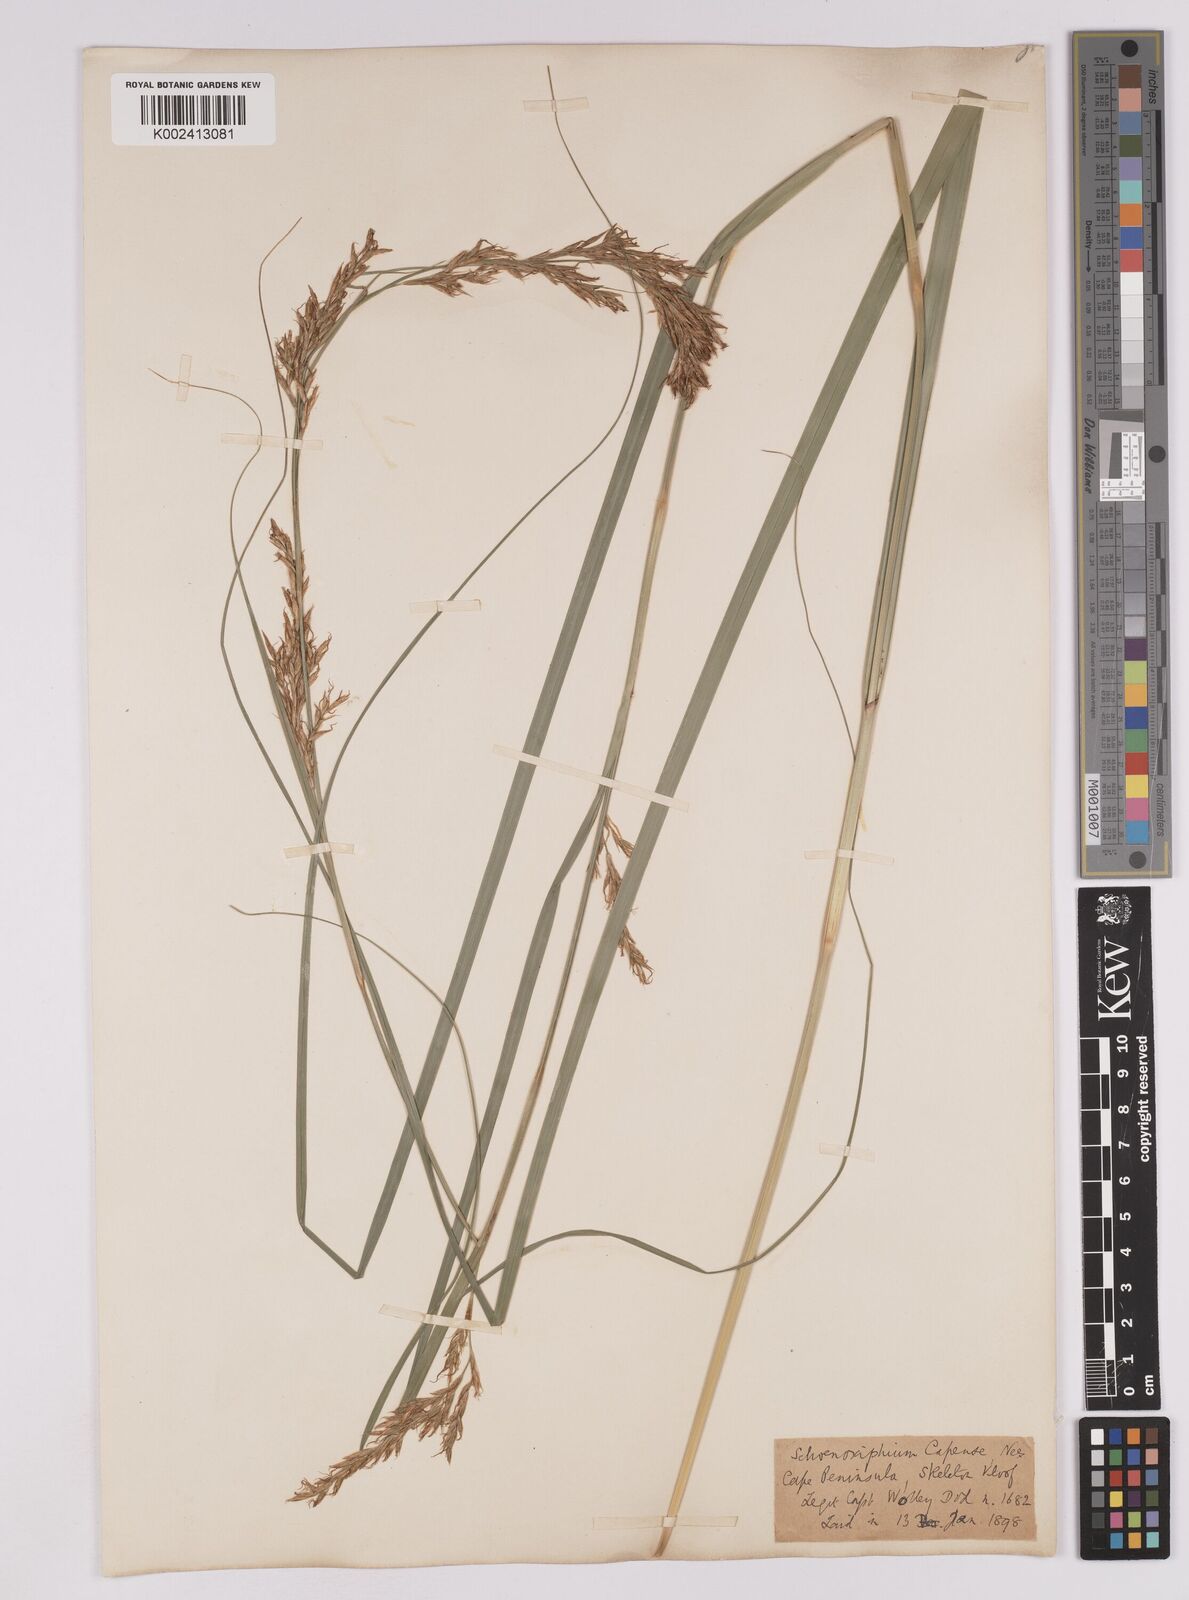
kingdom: Plantae
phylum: Tracheophyta
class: Liliopsida
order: Poales
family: Cyperaceae
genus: Carex
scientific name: Carex lancea
